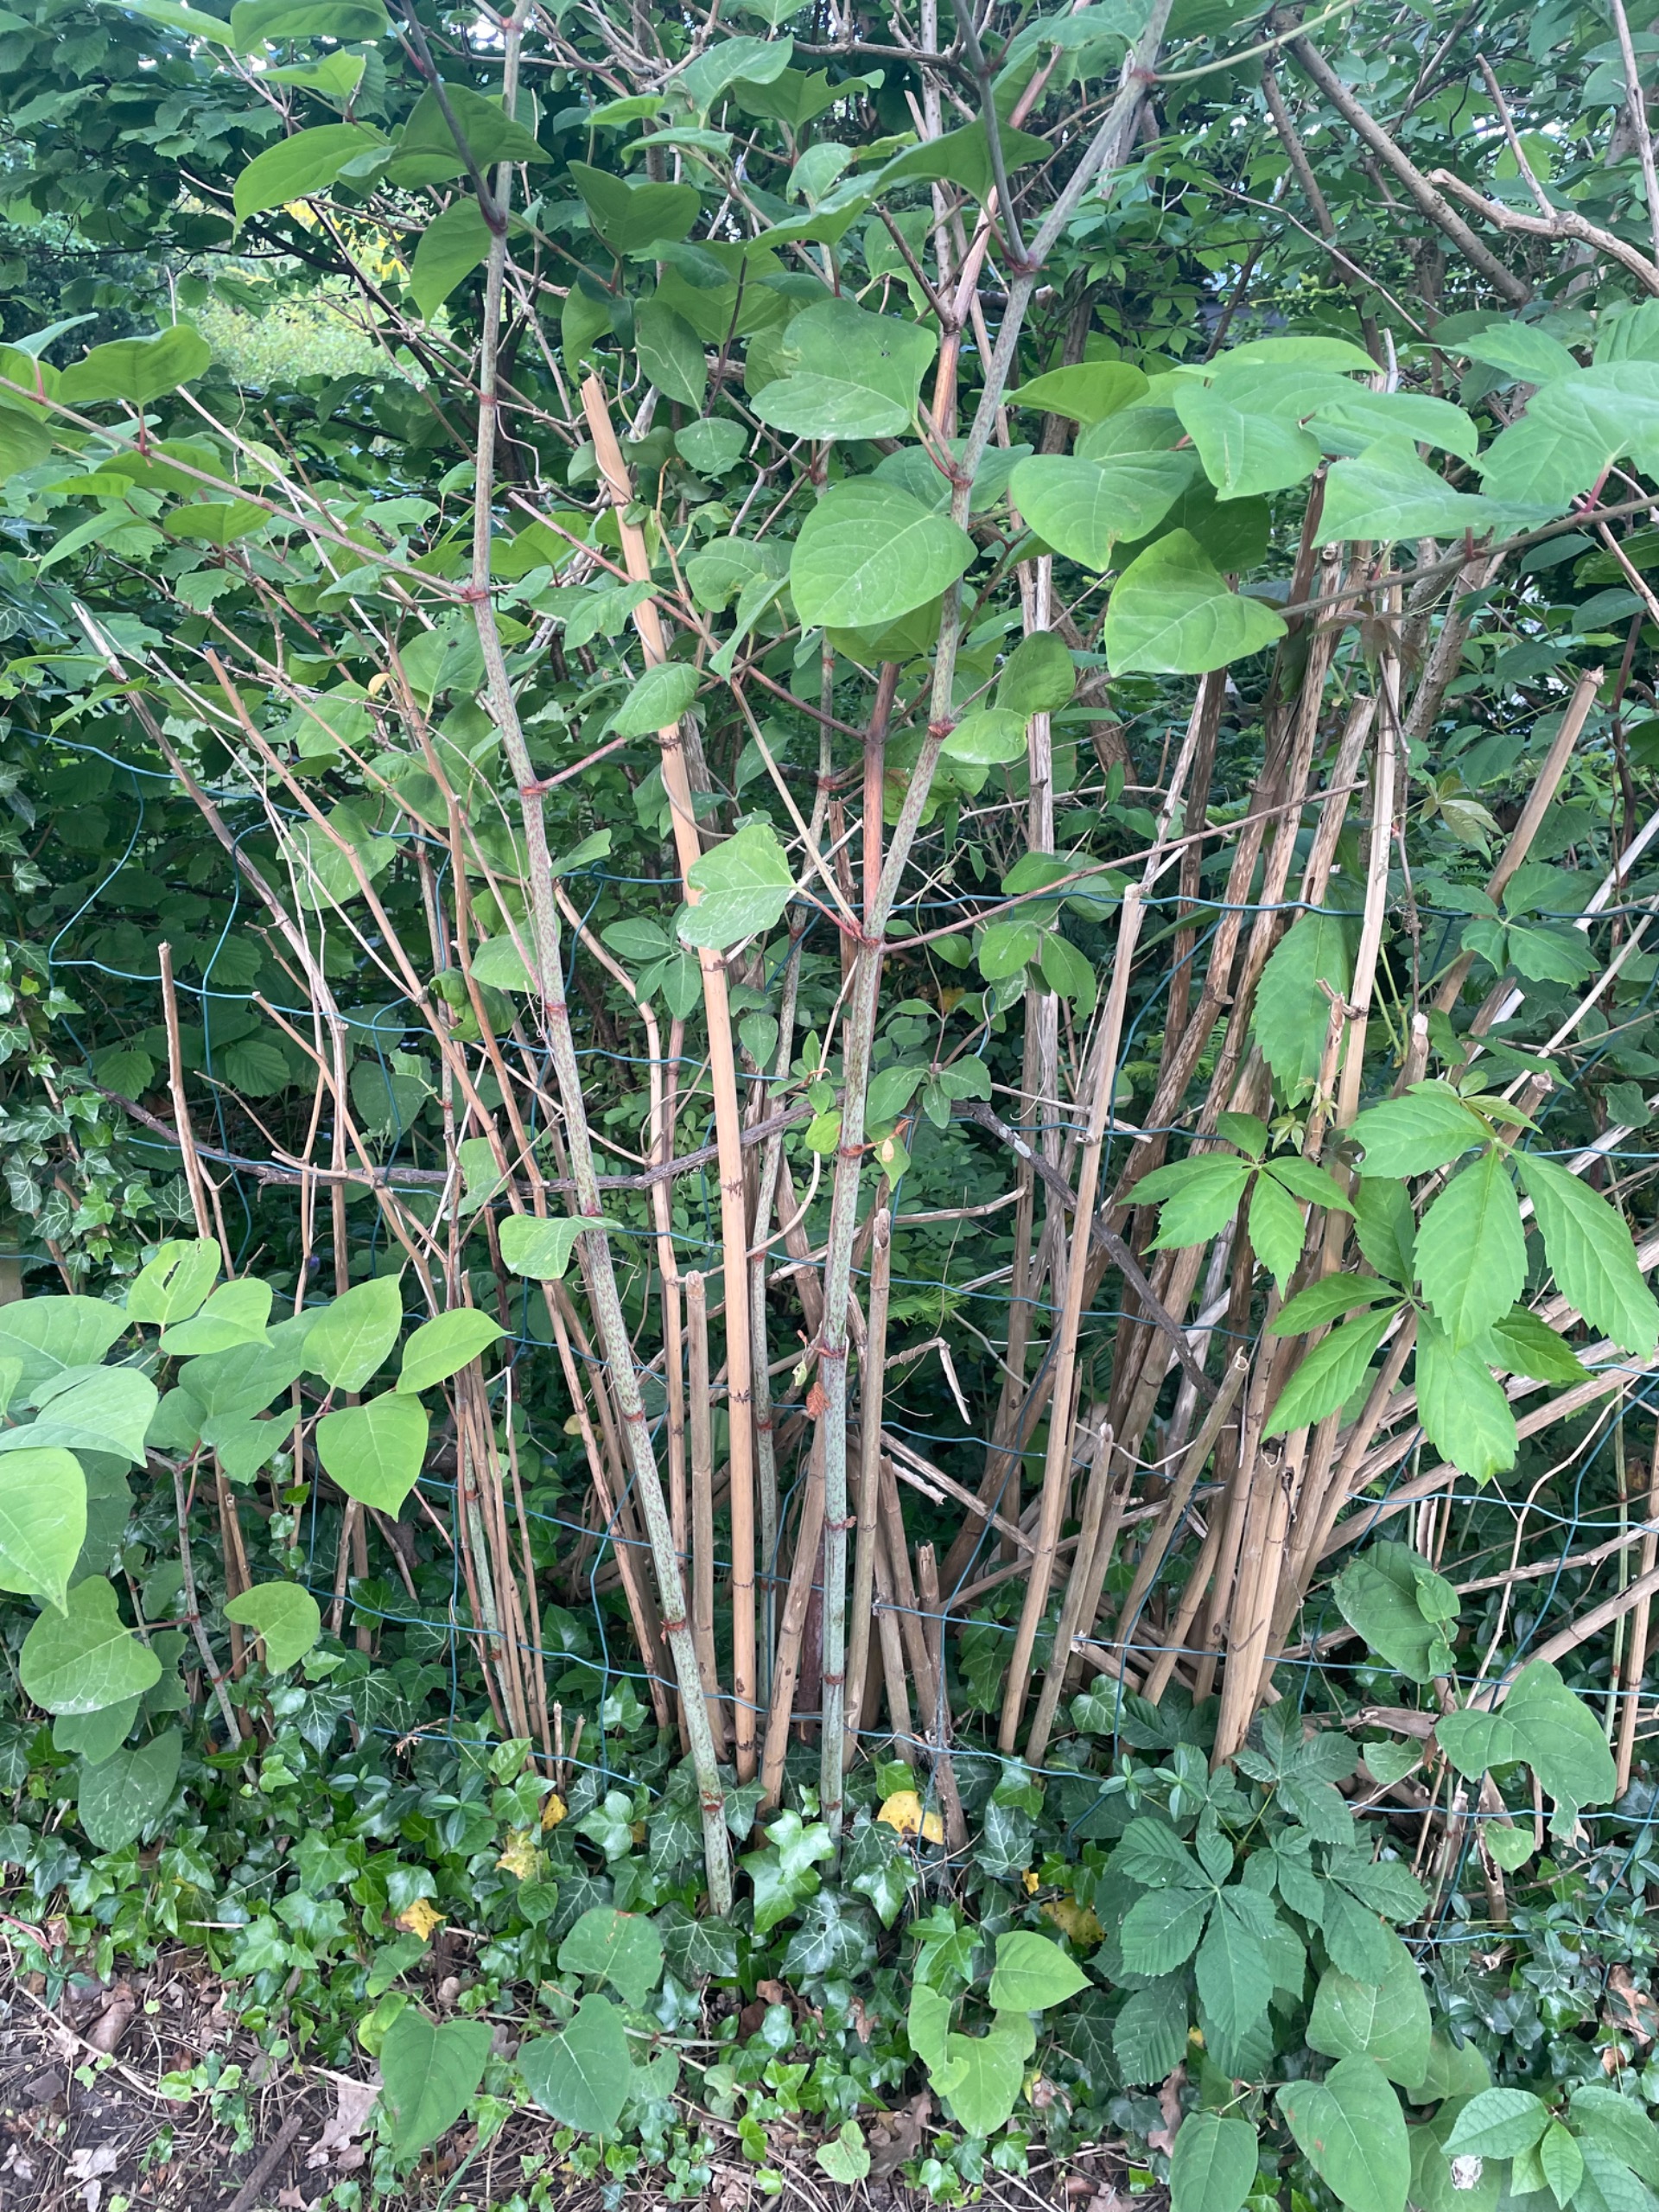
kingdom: Plantae
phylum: Tracheophyta
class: Magnoliopsida
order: Caryophyllales
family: Polygonaceae
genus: Reynoutria
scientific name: Reynoutria japonica
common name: Japan-pileurt
